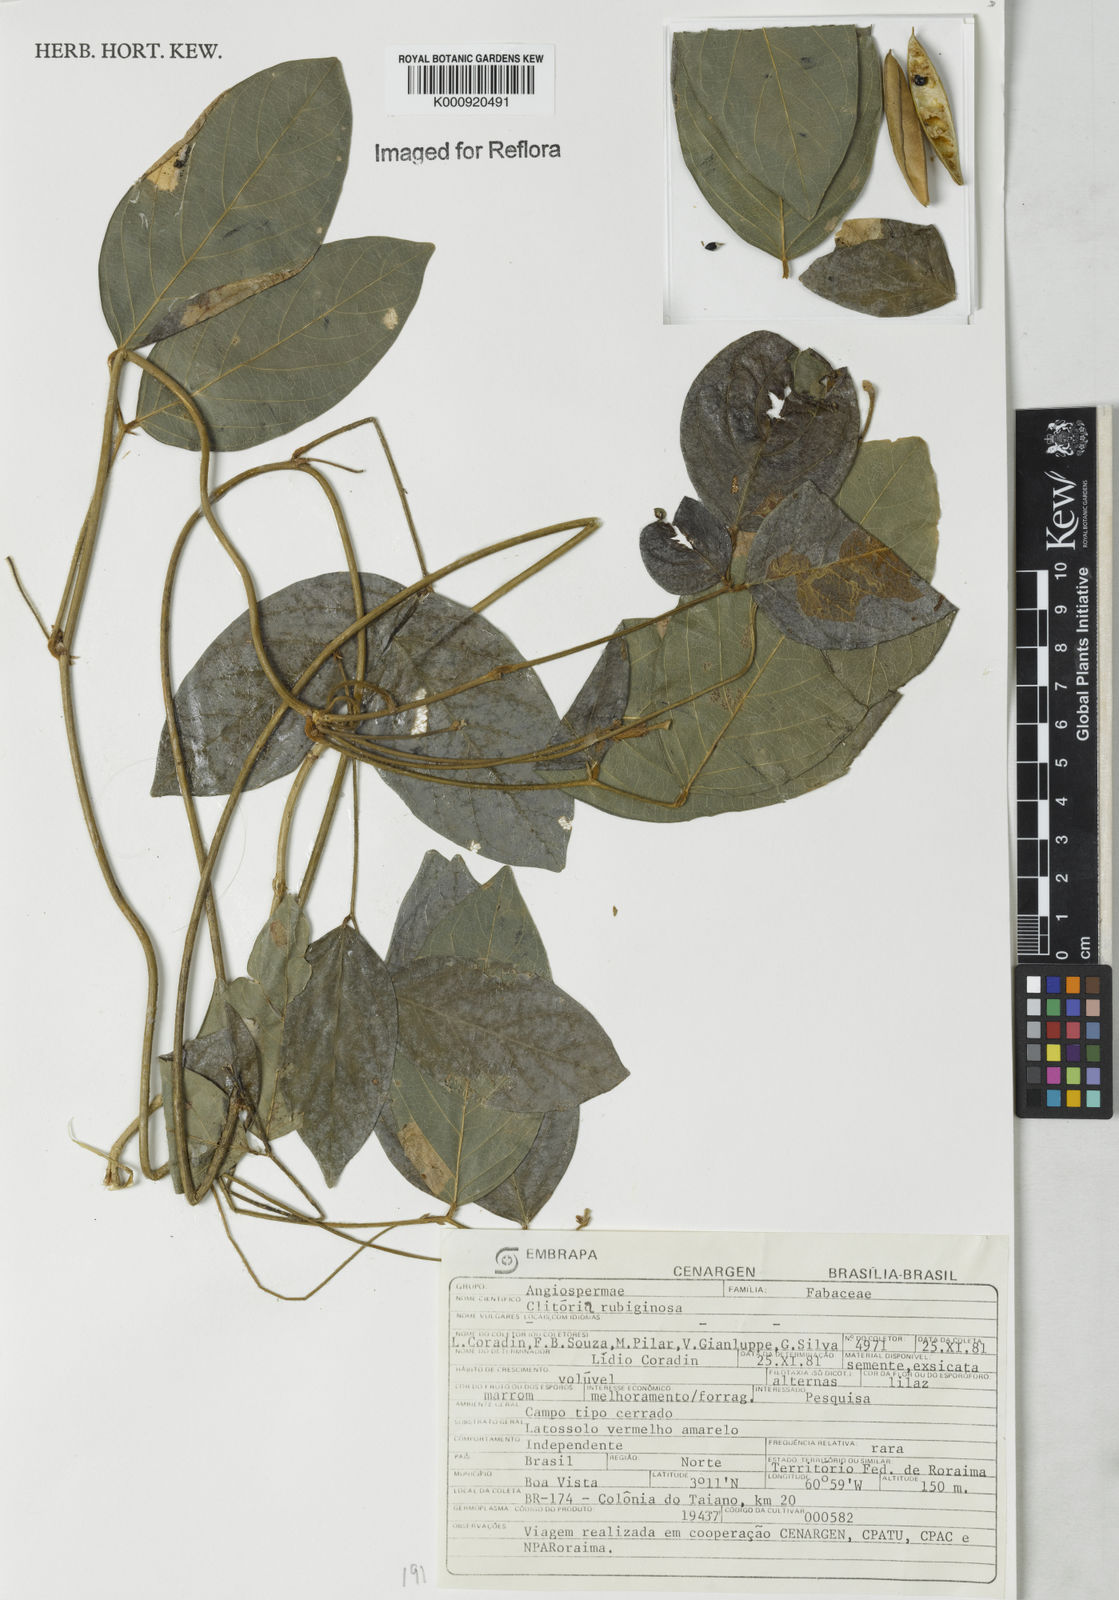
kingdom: Plantae
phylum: Tracheophyta
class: Magnoliopsida
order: Fabales
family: Fabaceae
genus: Clitoria
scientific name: Clitoria
